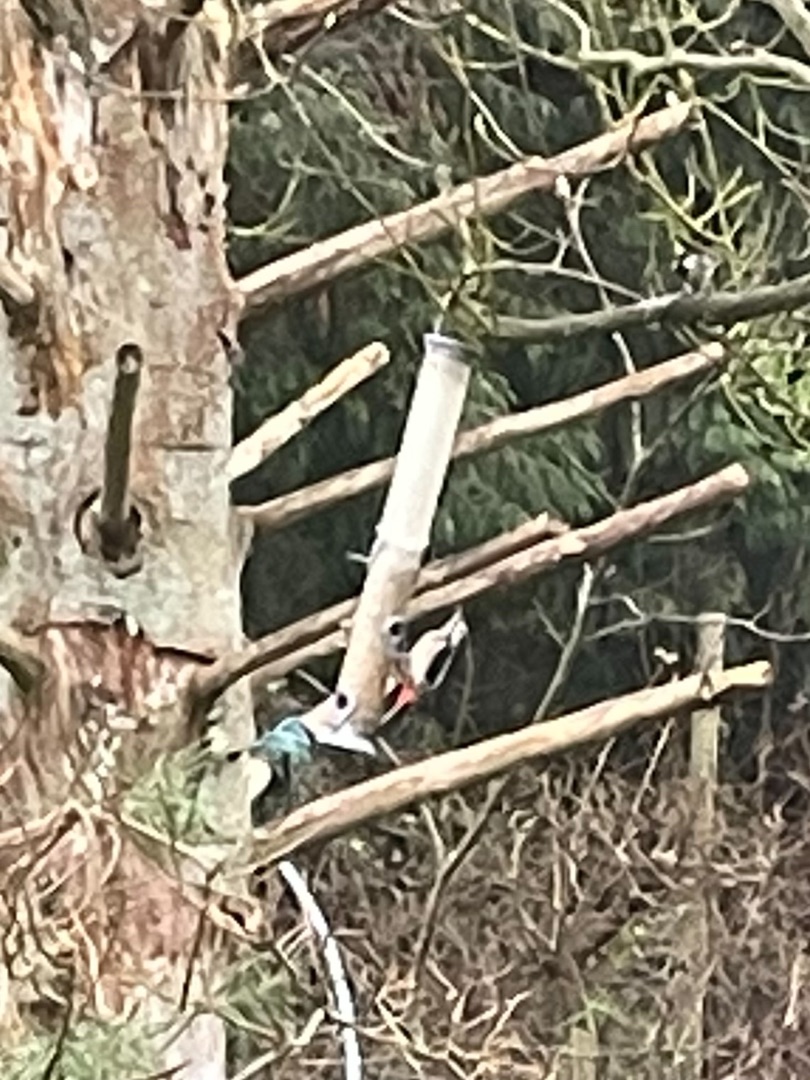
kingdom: Animalia
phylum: Chordata
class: Aves
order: Piciformes
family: Picidae
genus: Dendrocopos
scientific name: Dendrocopos major
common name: Stor flagspætte
